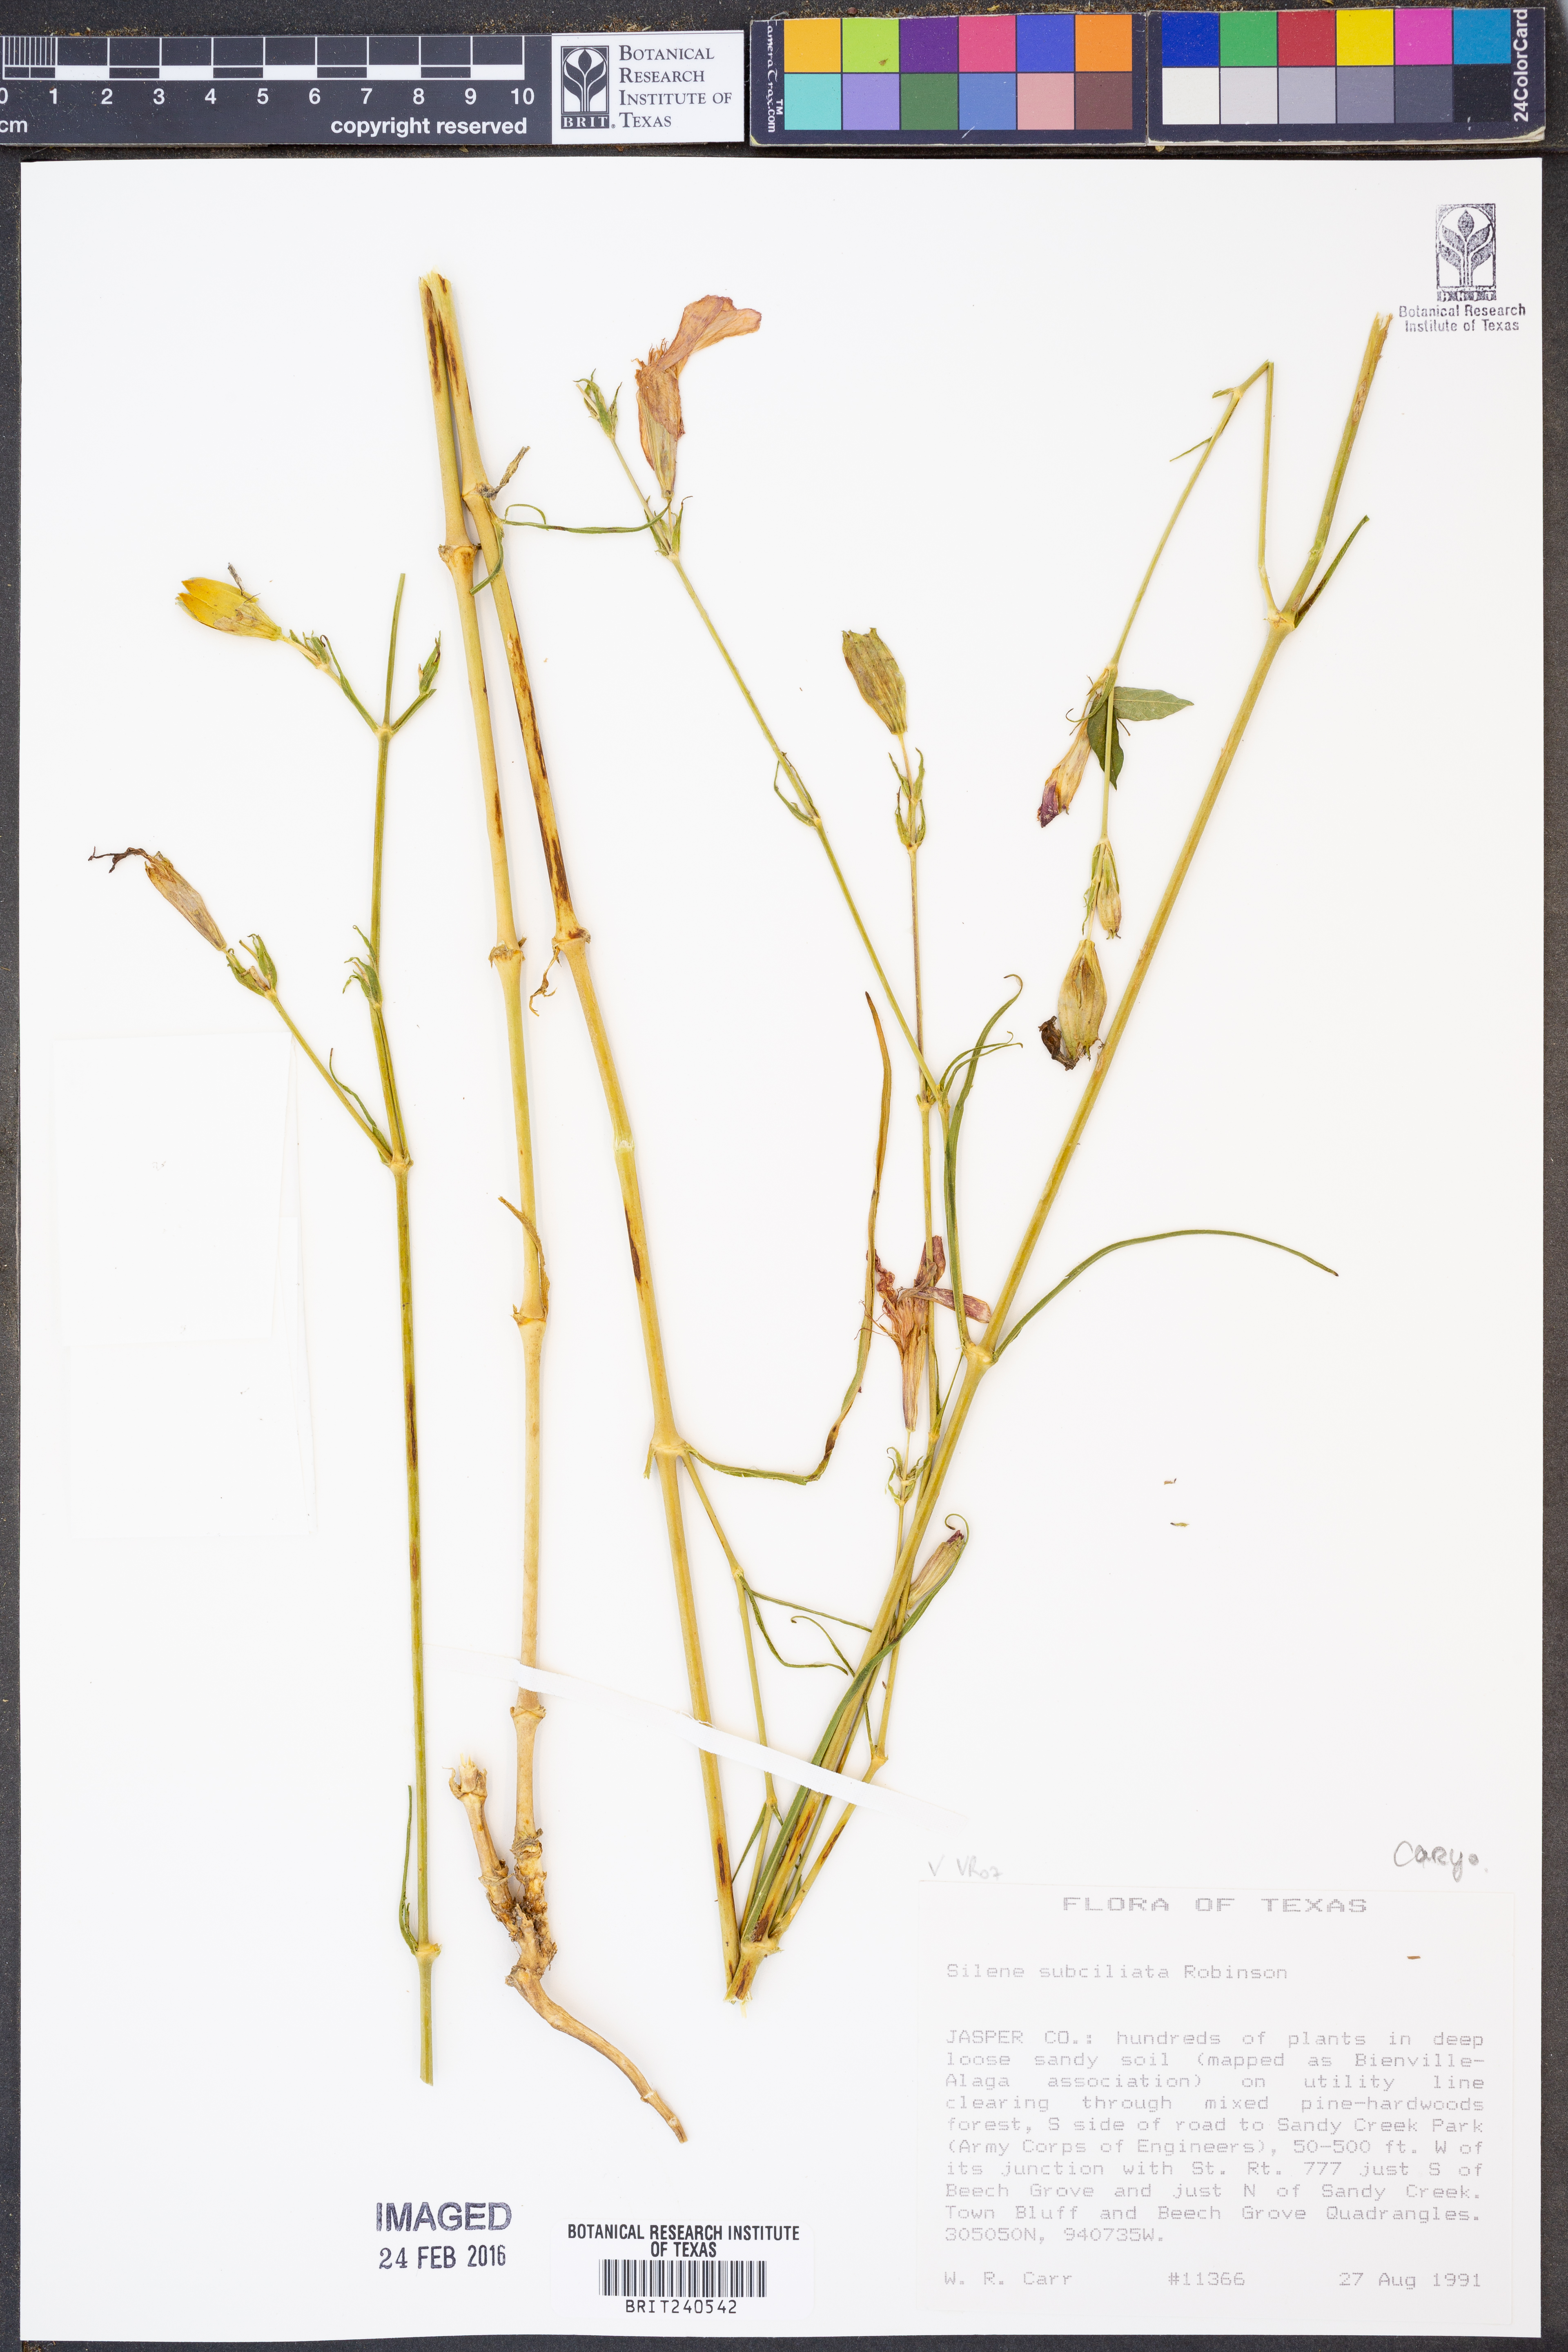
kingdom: Plantae
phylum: Tracheophyta
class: Magnoliopsida
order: Caryophyllales
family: Caryophyllaceae
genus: Silene
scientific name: Silene subciliata
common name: Prairie fire-pink
